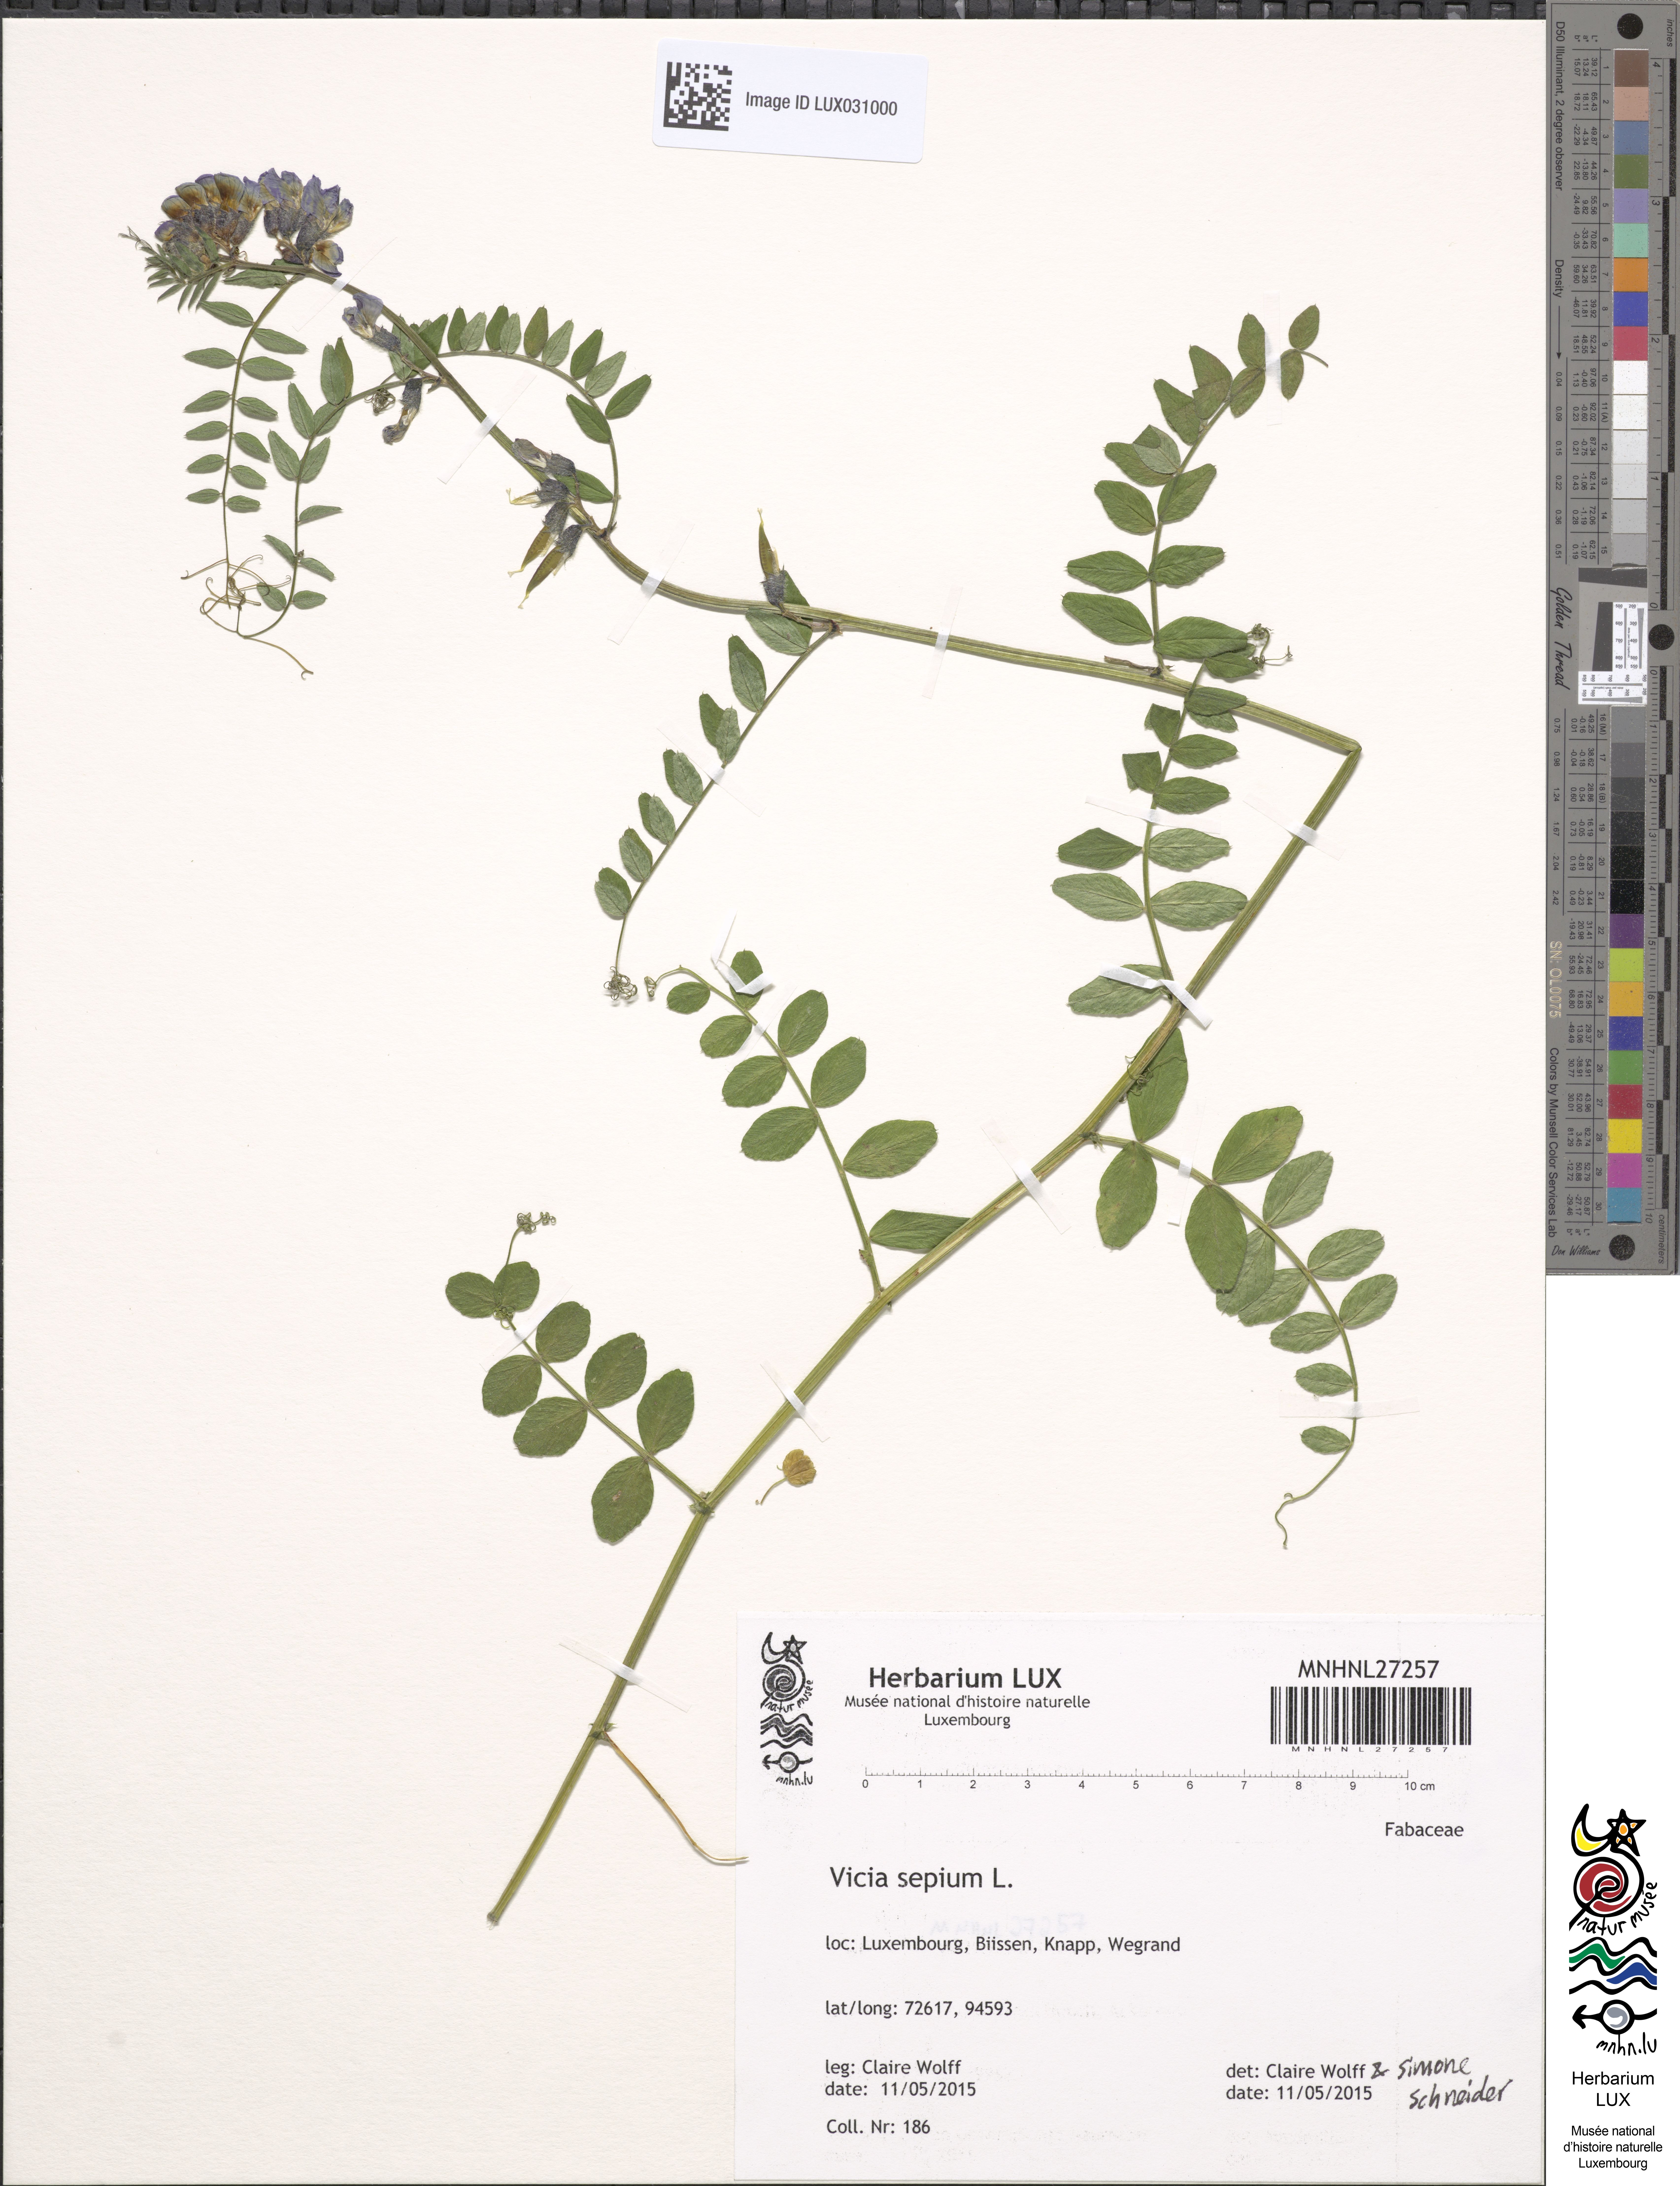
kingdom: Plantae
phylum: Tracheophyta
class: Magnoliopsida
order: Fabales
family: Fabaceae
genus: Vicia
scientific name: Vicia sepium
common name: Bush vetch
